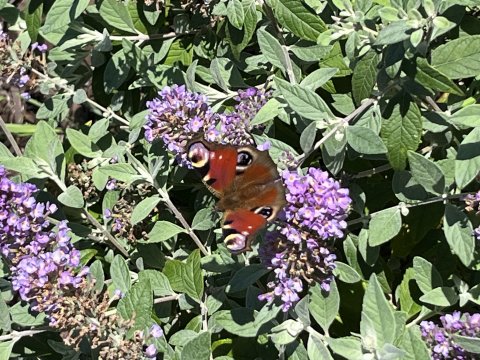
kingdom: Animalia
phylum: Arthropoda
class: Insecta
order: Lepidoptera
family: Nymphalidae
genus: Aglais
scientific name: Aglais io
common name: European Peacock
